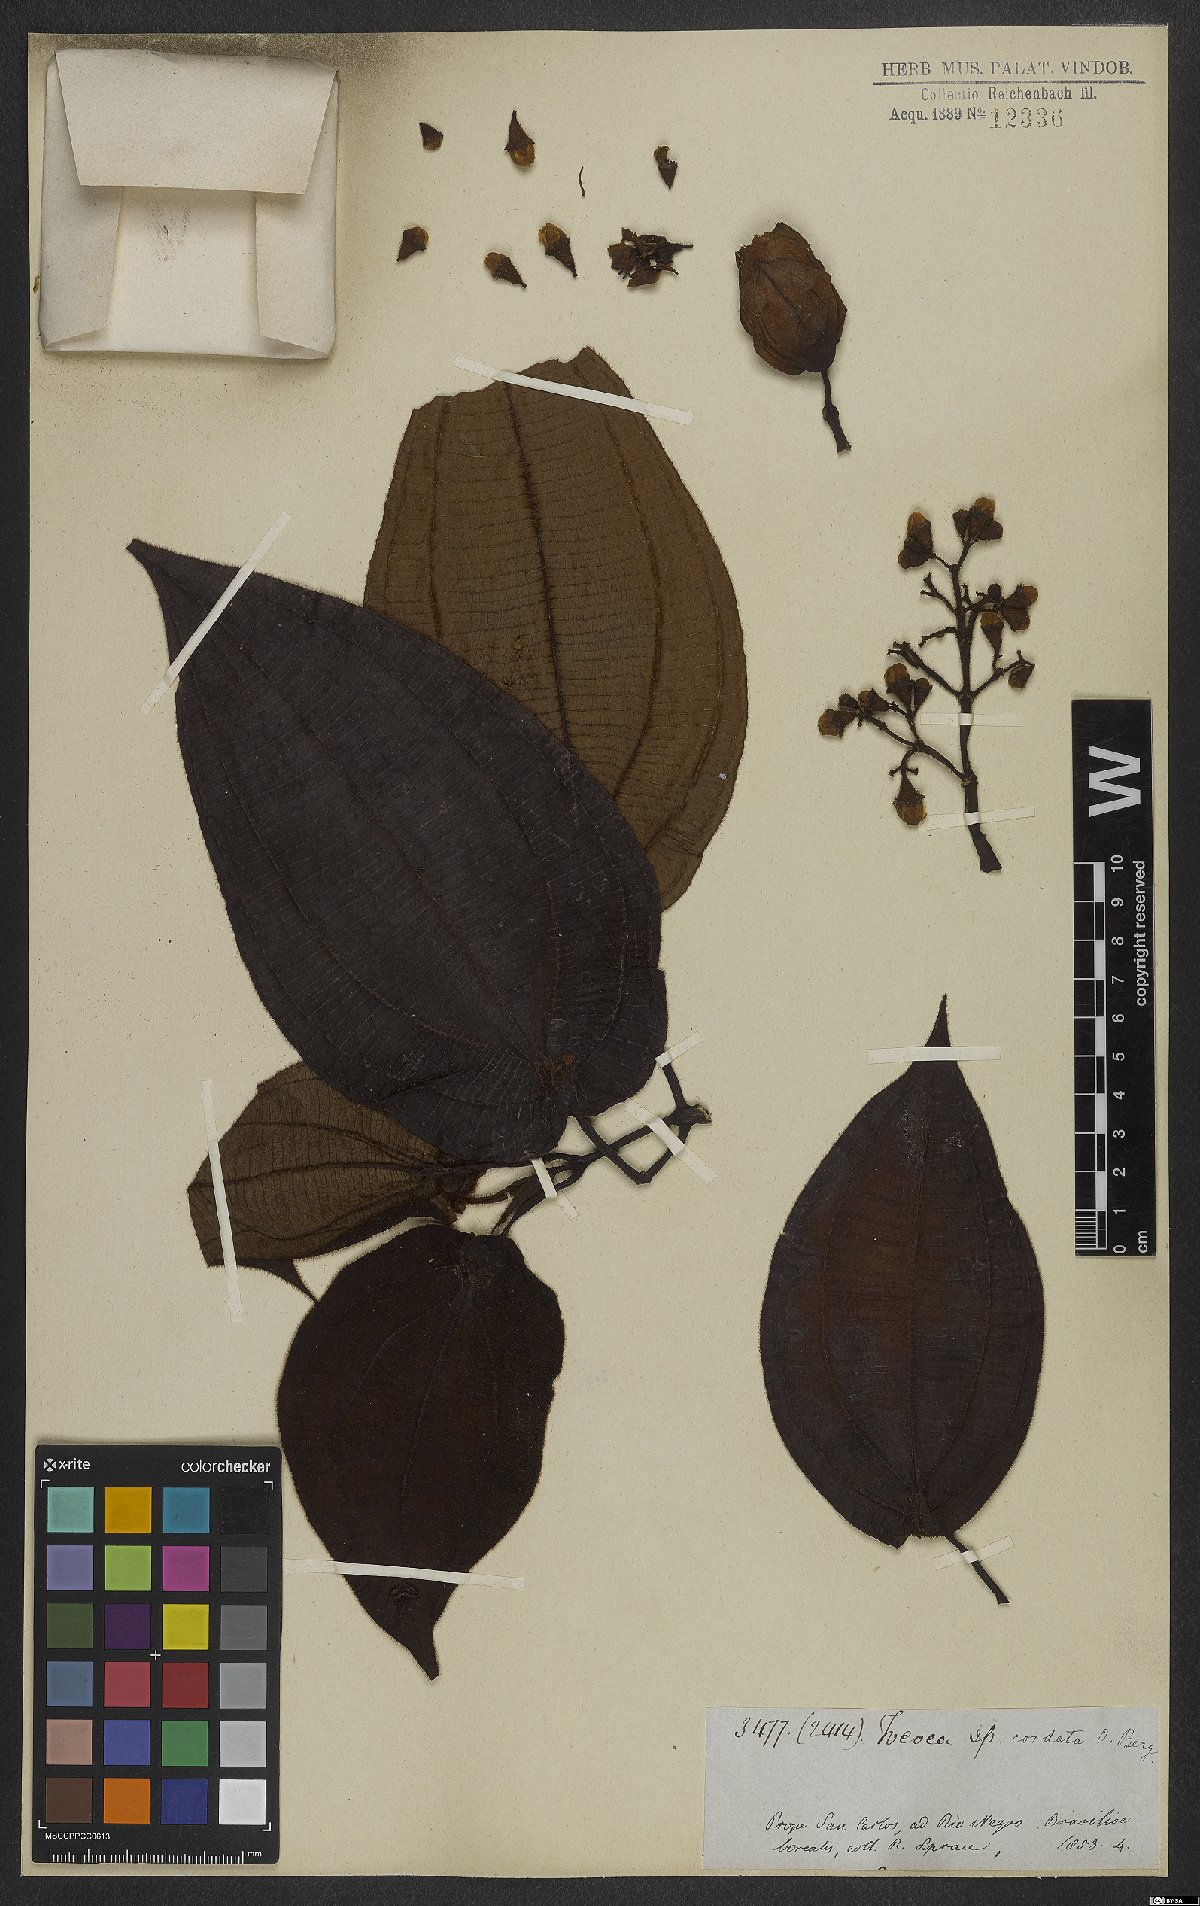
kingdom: Plantae
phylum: Tracheophyta
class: Magnoliopsida
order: Myrtales
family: Melastomataceae
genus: Miconia
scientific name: Miconia tococordata
